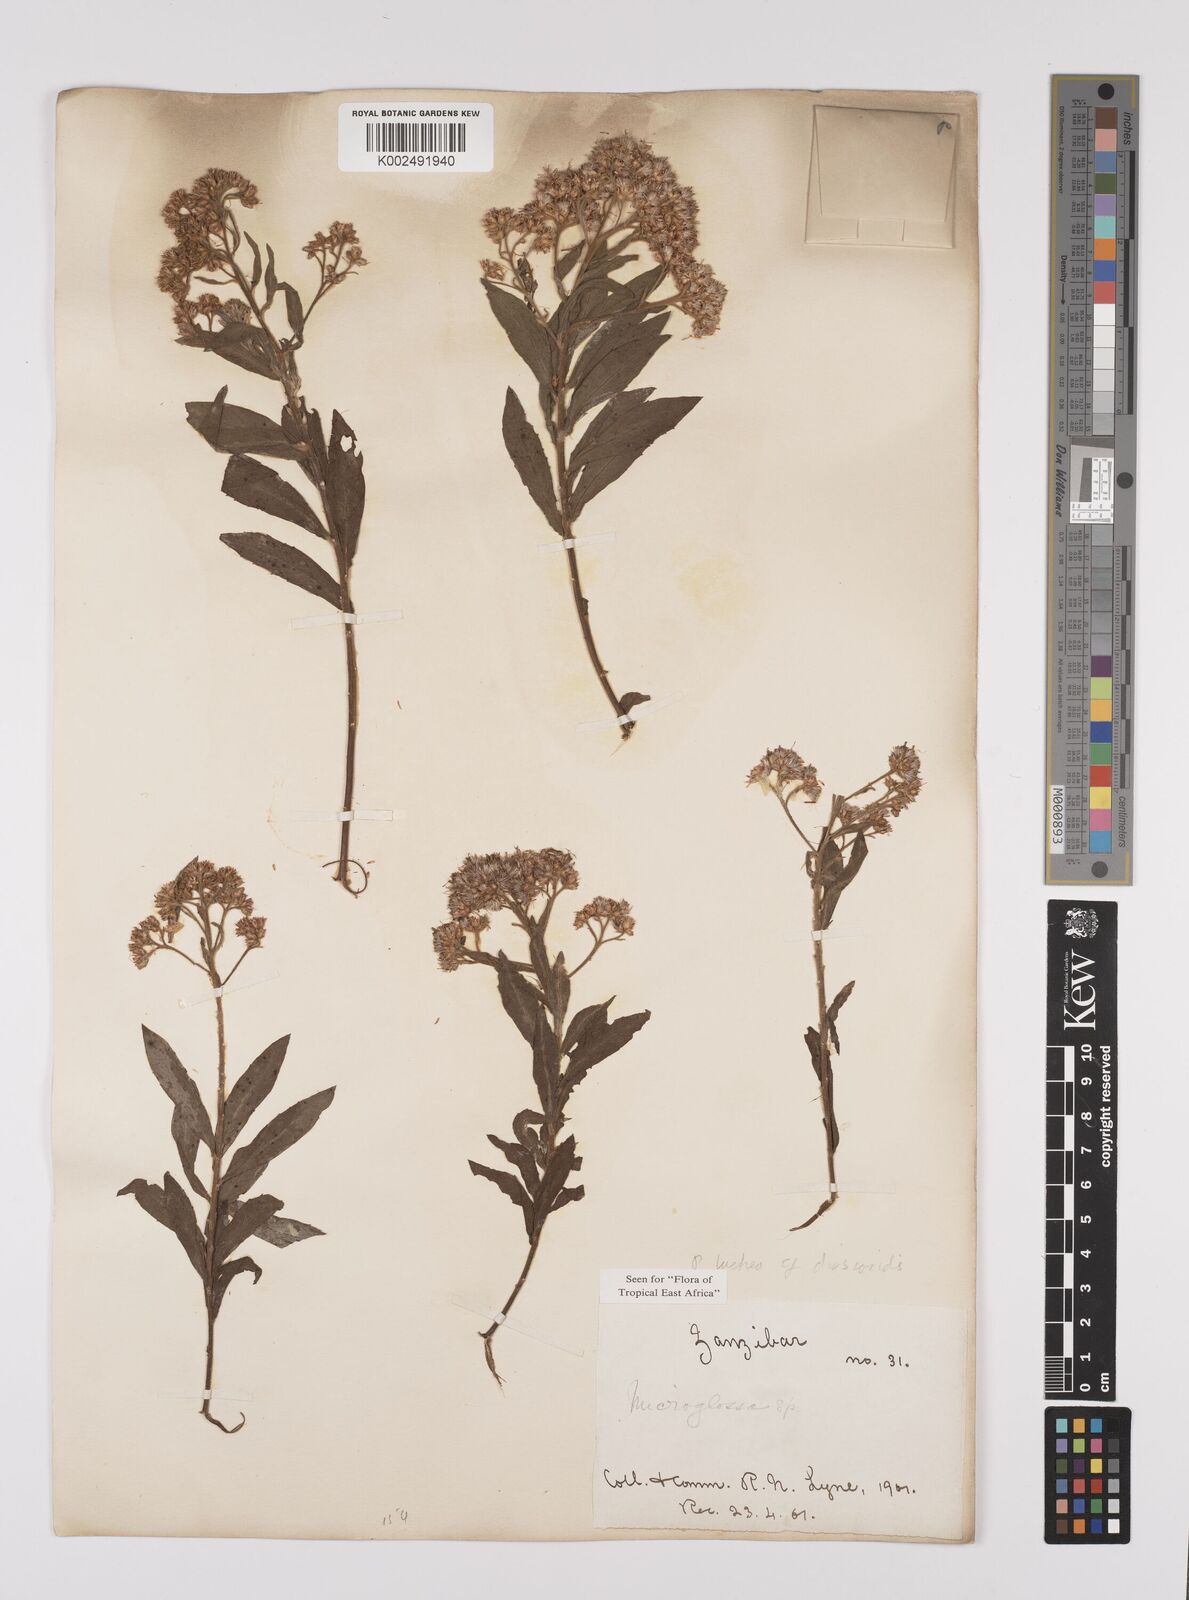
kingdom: Plantae
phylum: Tracheophyta
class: Magnoliopsida
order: Asterales
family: Asteraceae
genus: Pluchea
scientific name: Pluchea dioscoridis
